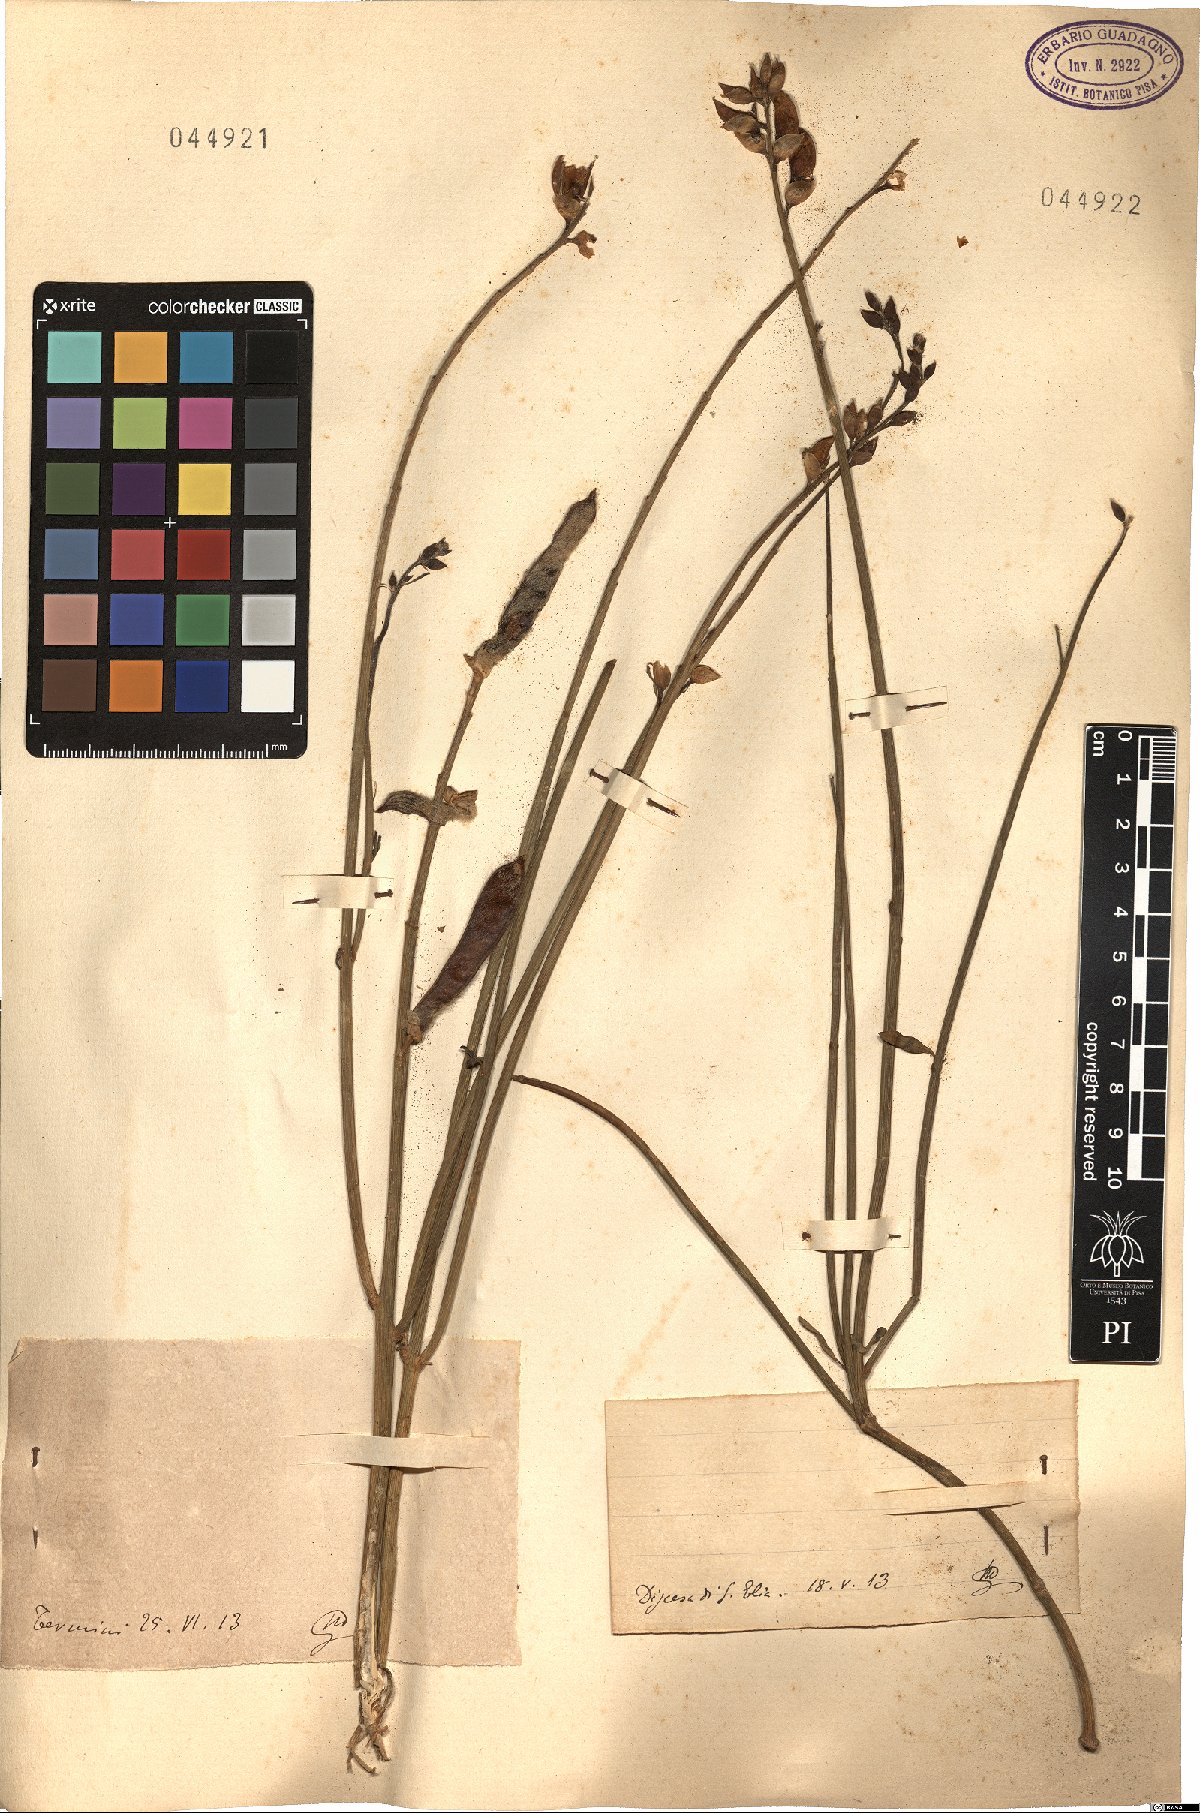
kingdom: Plantae
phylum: Tracheophyta
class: Magnoliopsida
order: Fabales
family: Fabaceae
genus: Spartium
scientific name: Spartium
